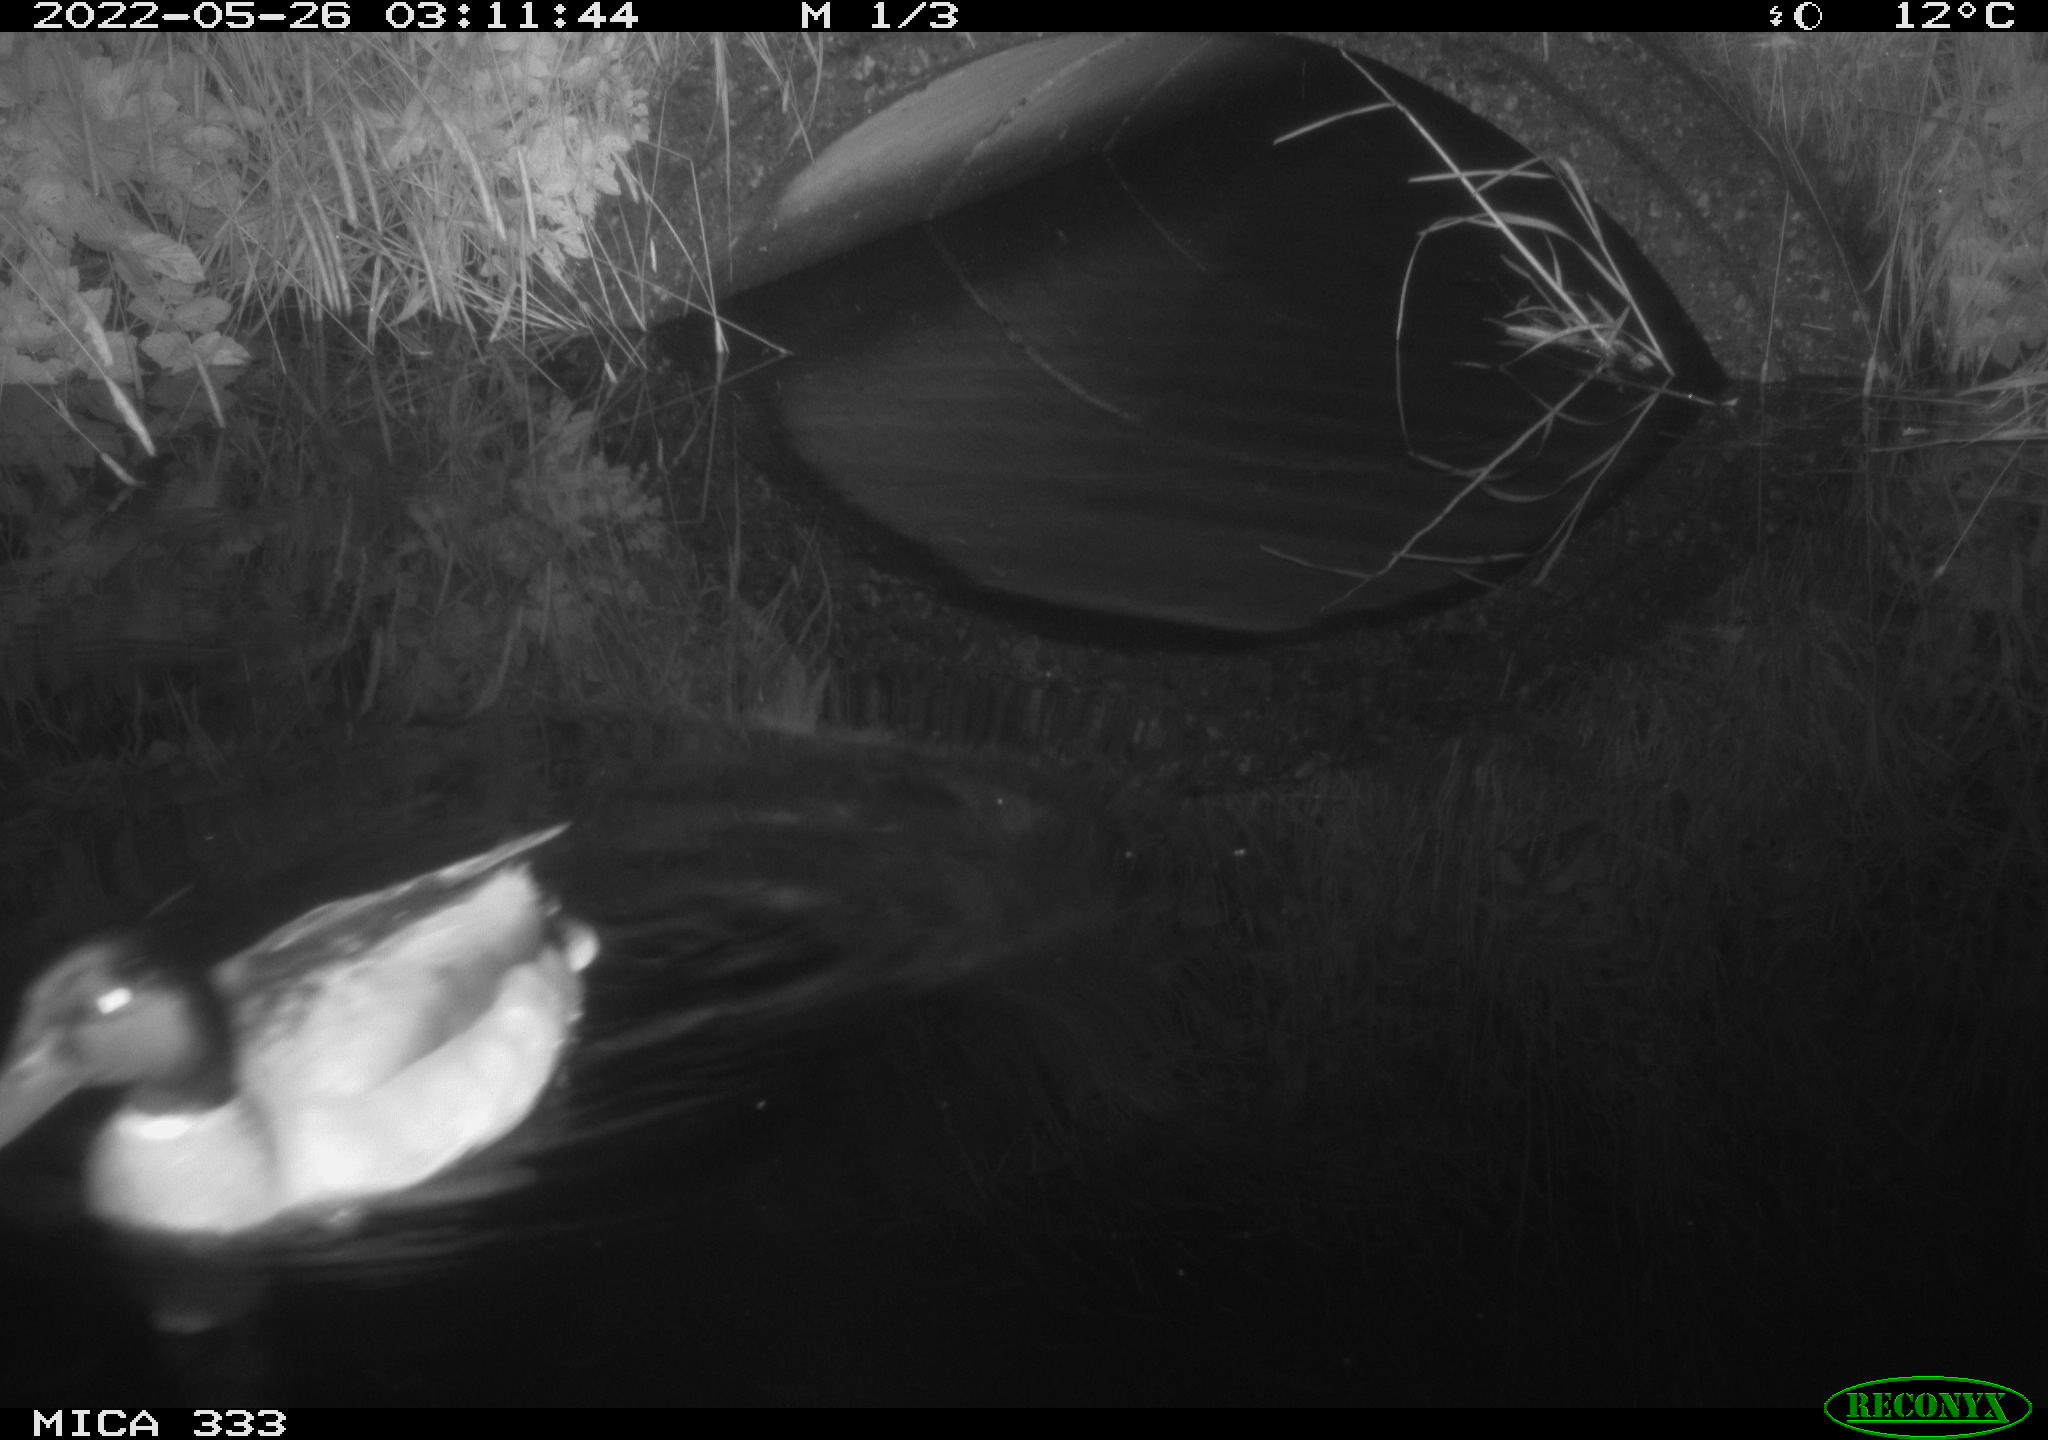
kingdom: Animalia
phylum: Chordata
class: Aves
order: Anseriformes
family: Anatidae
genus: Anas
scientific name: Anas platyrhynchos
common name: Mallard
